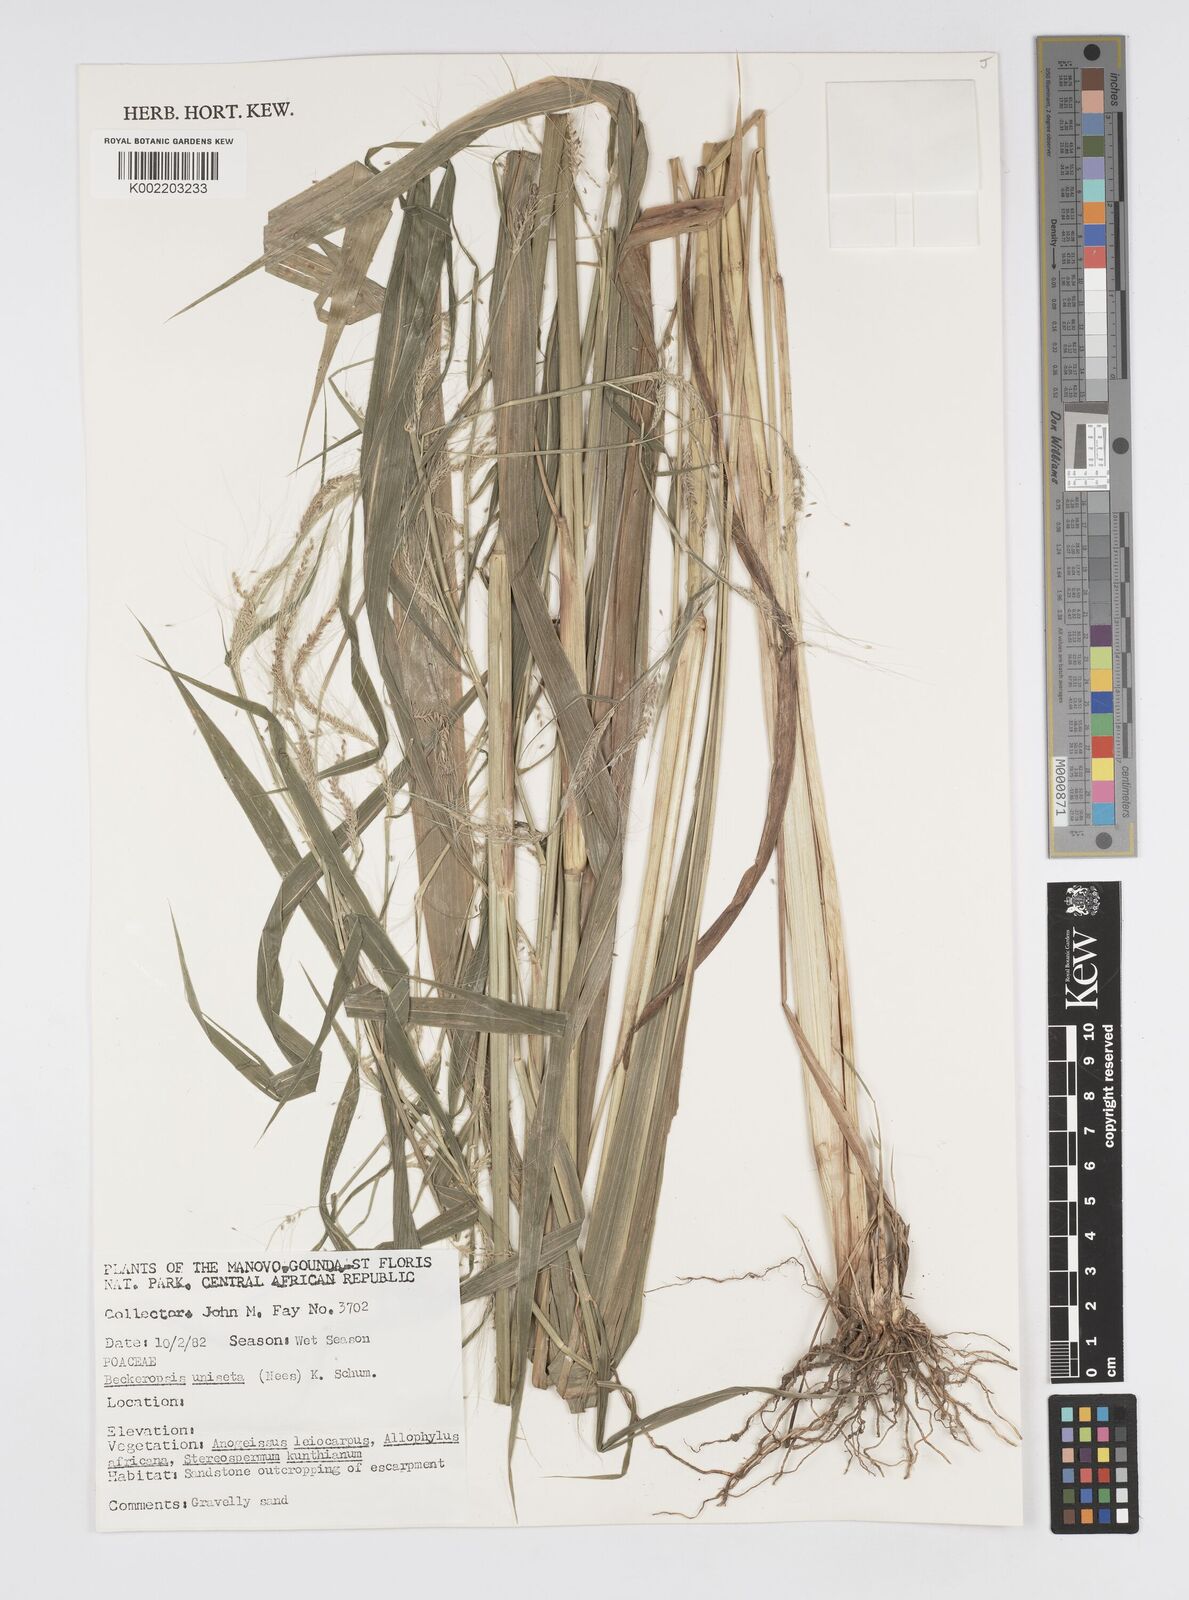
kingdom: Plantae
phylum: Tracheophyta
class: Liliopsida
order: Poales
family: Poaceae
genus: Cenchrus
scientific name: Cenchrus unisetus
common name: Natal grass
